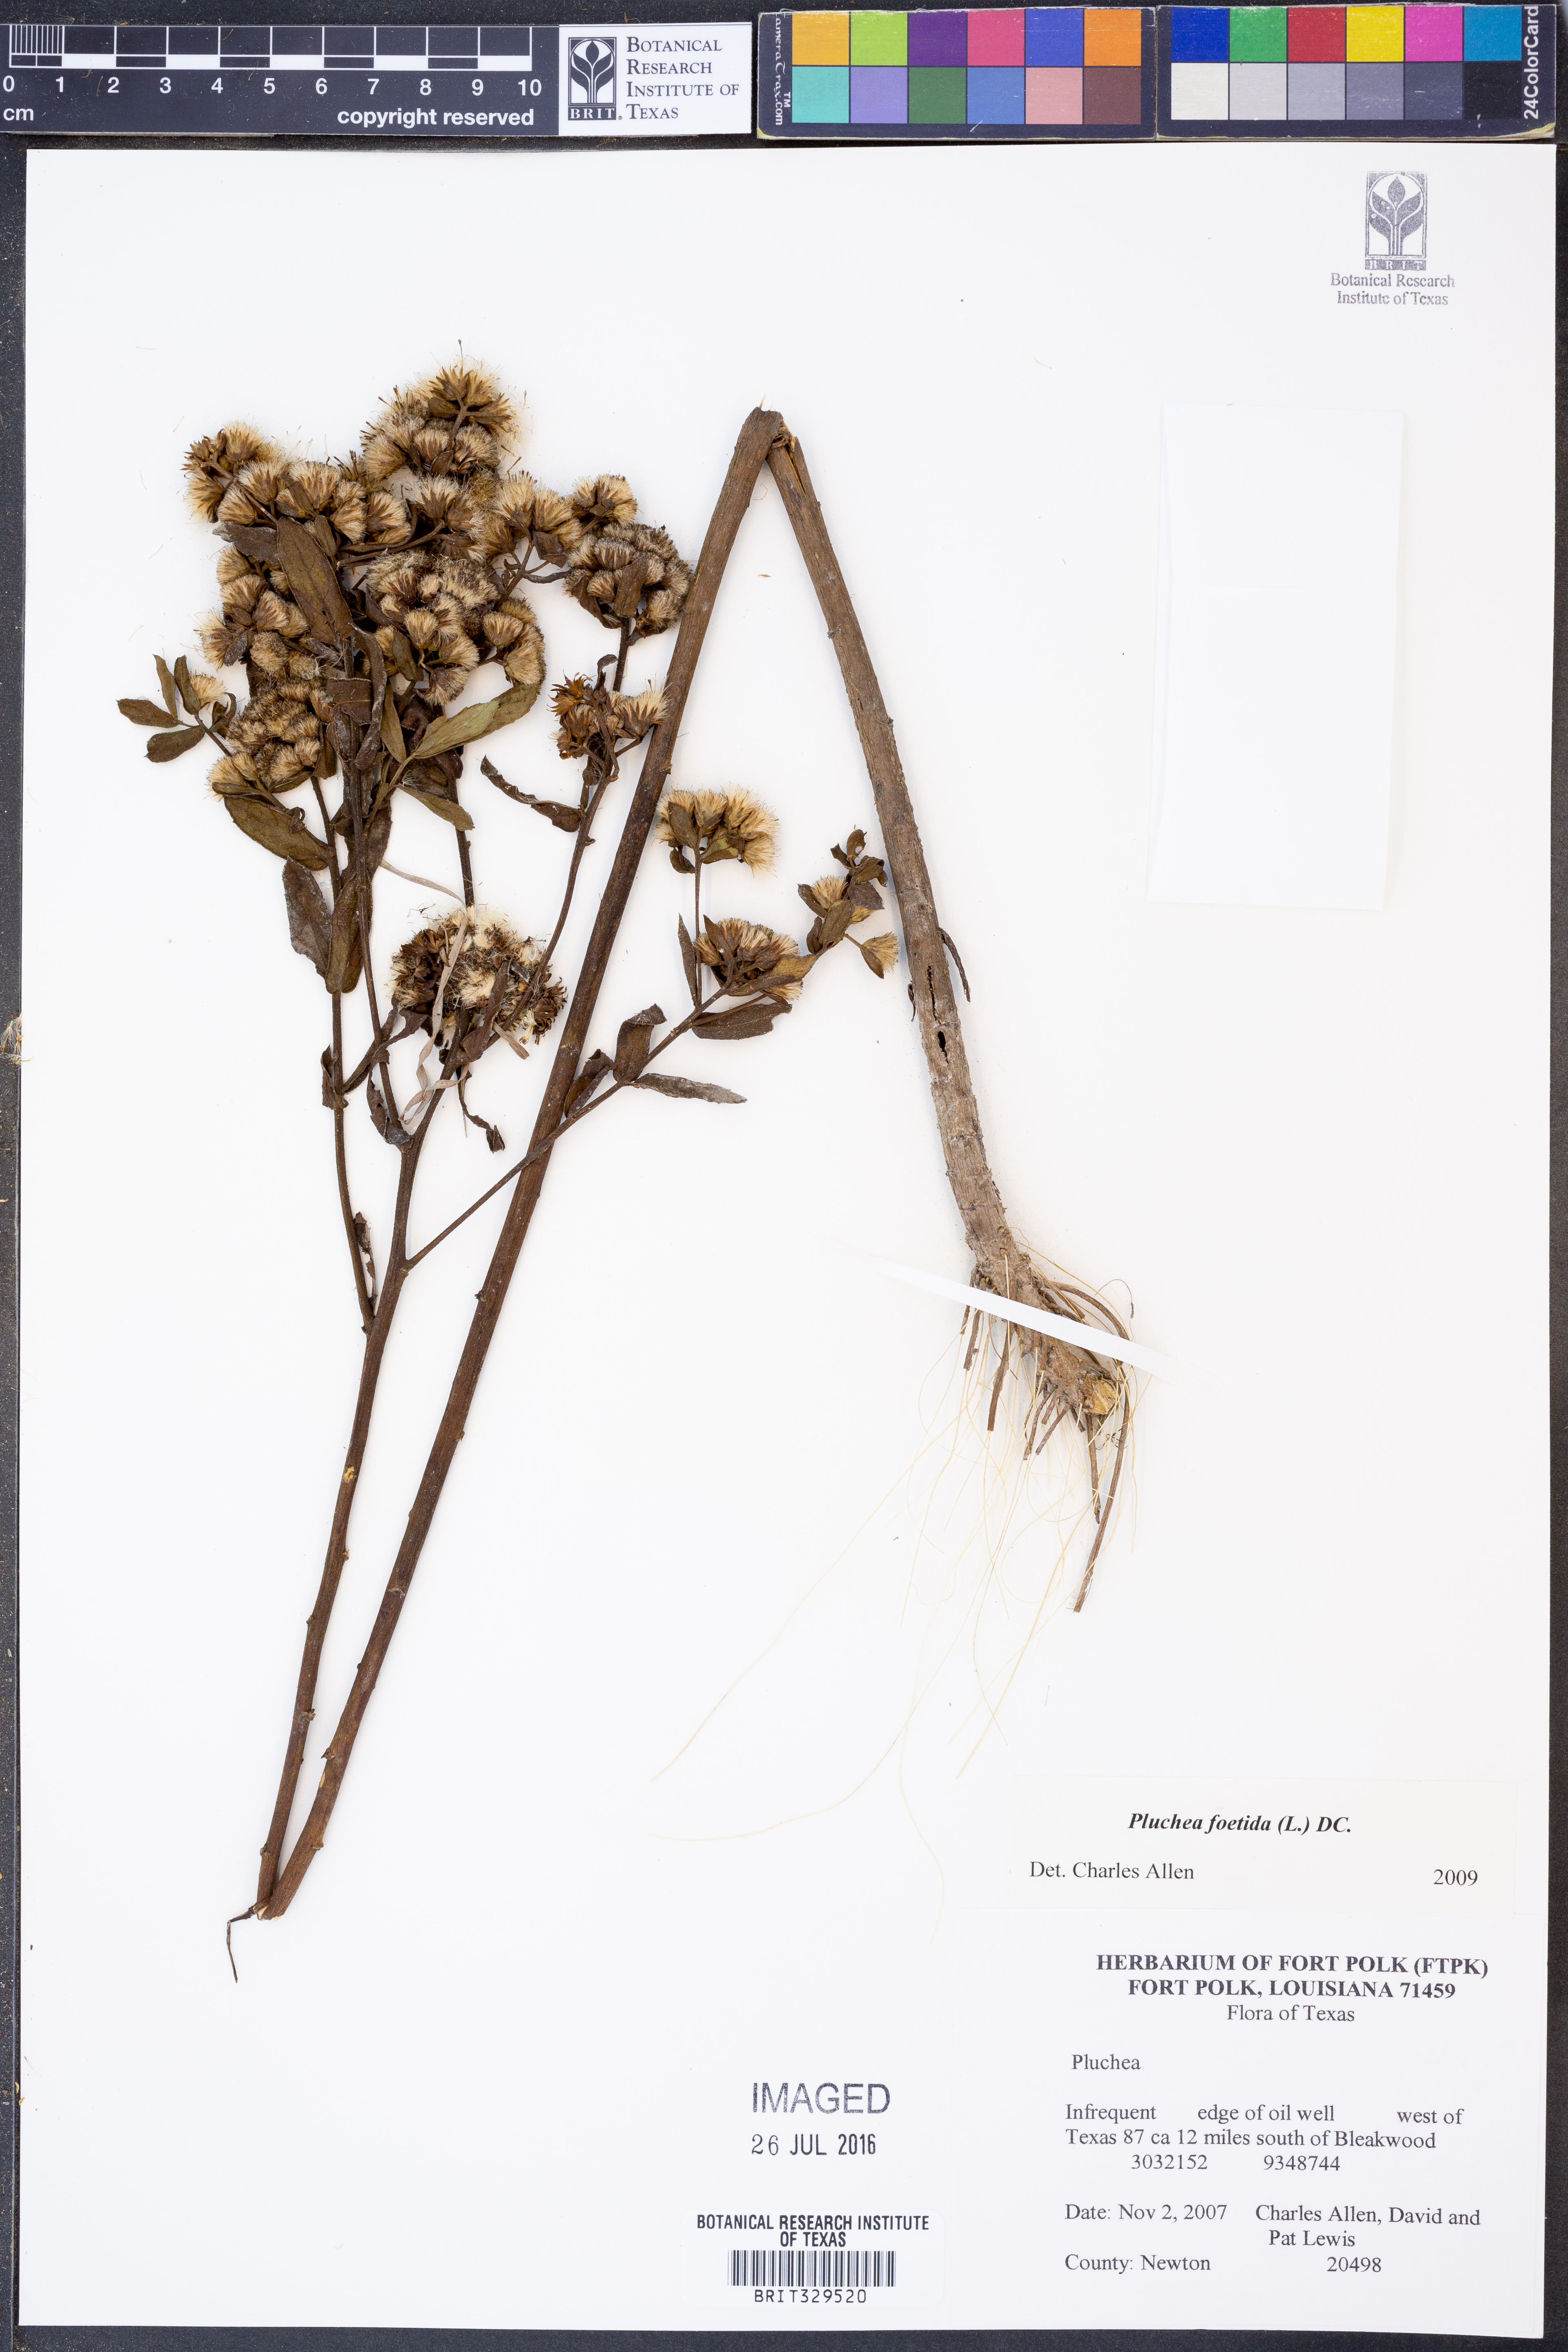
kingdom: Plantae
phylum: Tracheophyta
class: Magnoliopsida
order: Asterales
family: Asteraceae
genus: Pluchea
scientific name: Pluchea foetida
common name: Stinking camphorweed
